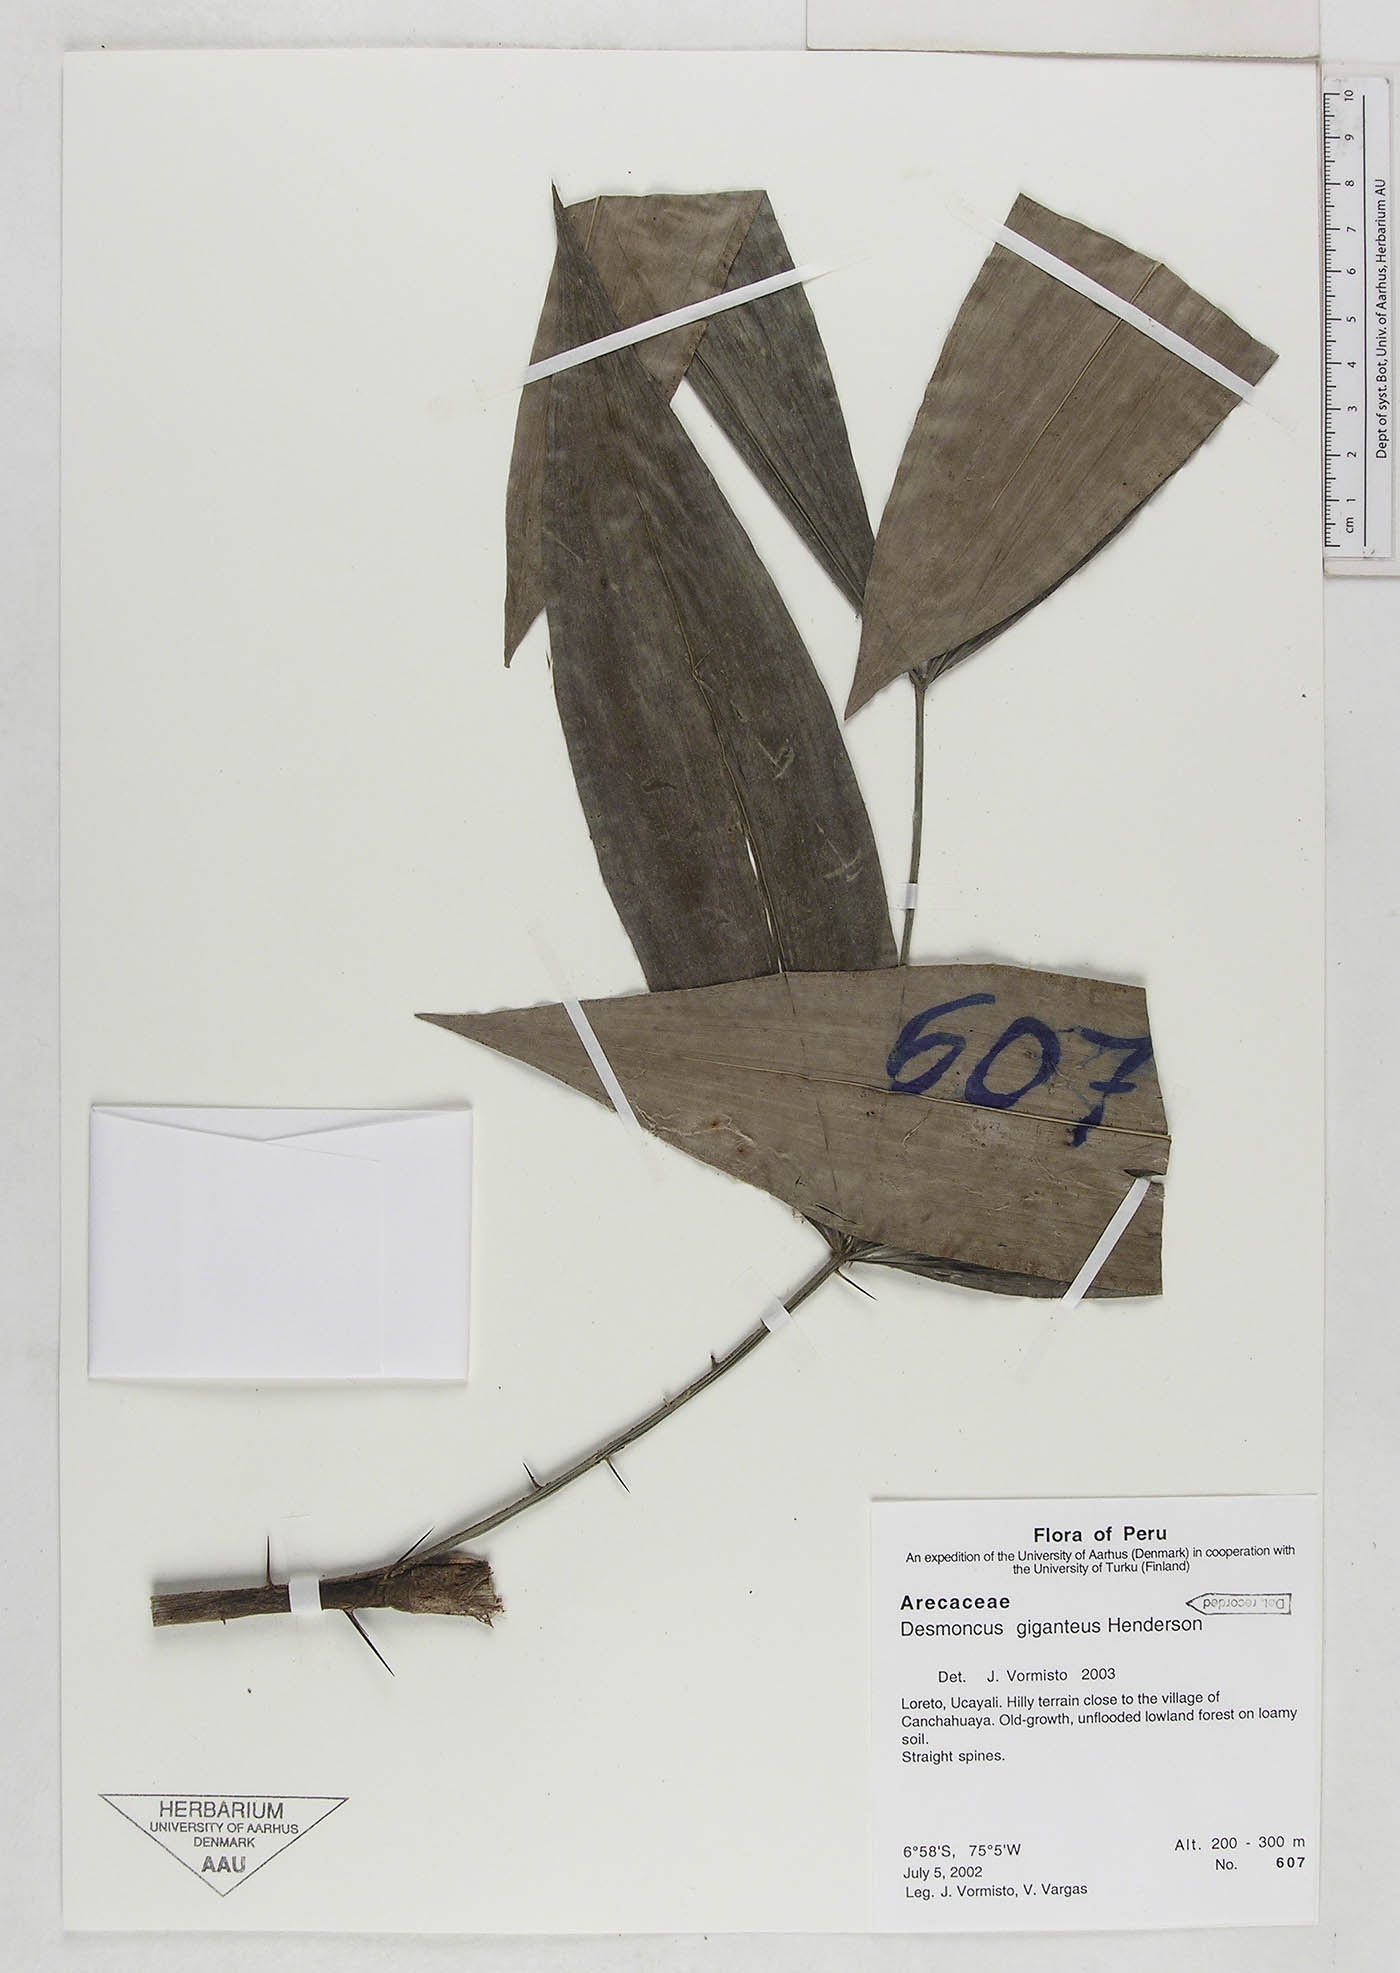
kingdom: Plantae
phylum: Tracheophyta
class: Liliopsida
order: Arecales
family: Arecaceae
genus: Desmoncus
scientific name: Desmoncus giganteus
